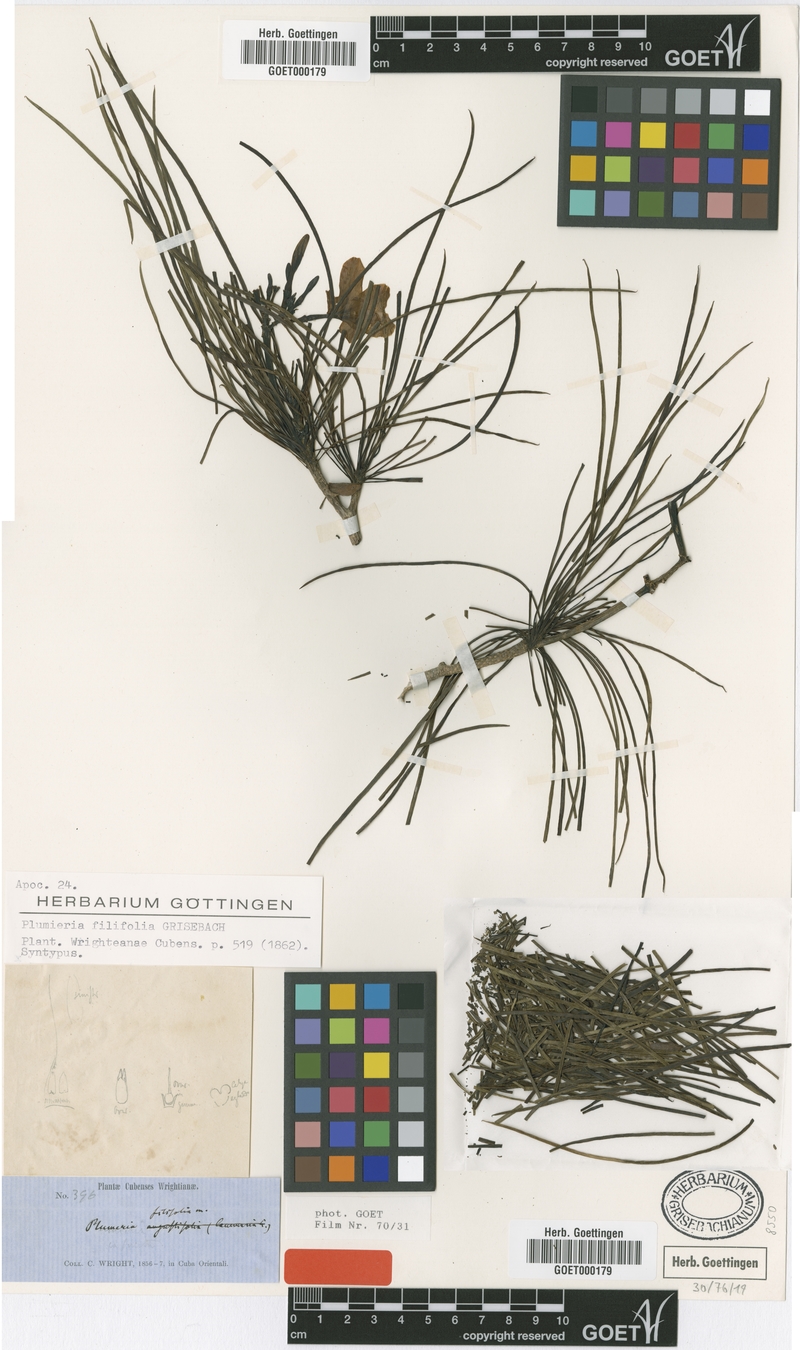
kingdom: Plantae
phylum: Tracheophyta
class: Magnoliopsida
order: Gentianales
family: Apocynaceae
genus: Plumeria
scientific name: Plumeria filifolia
